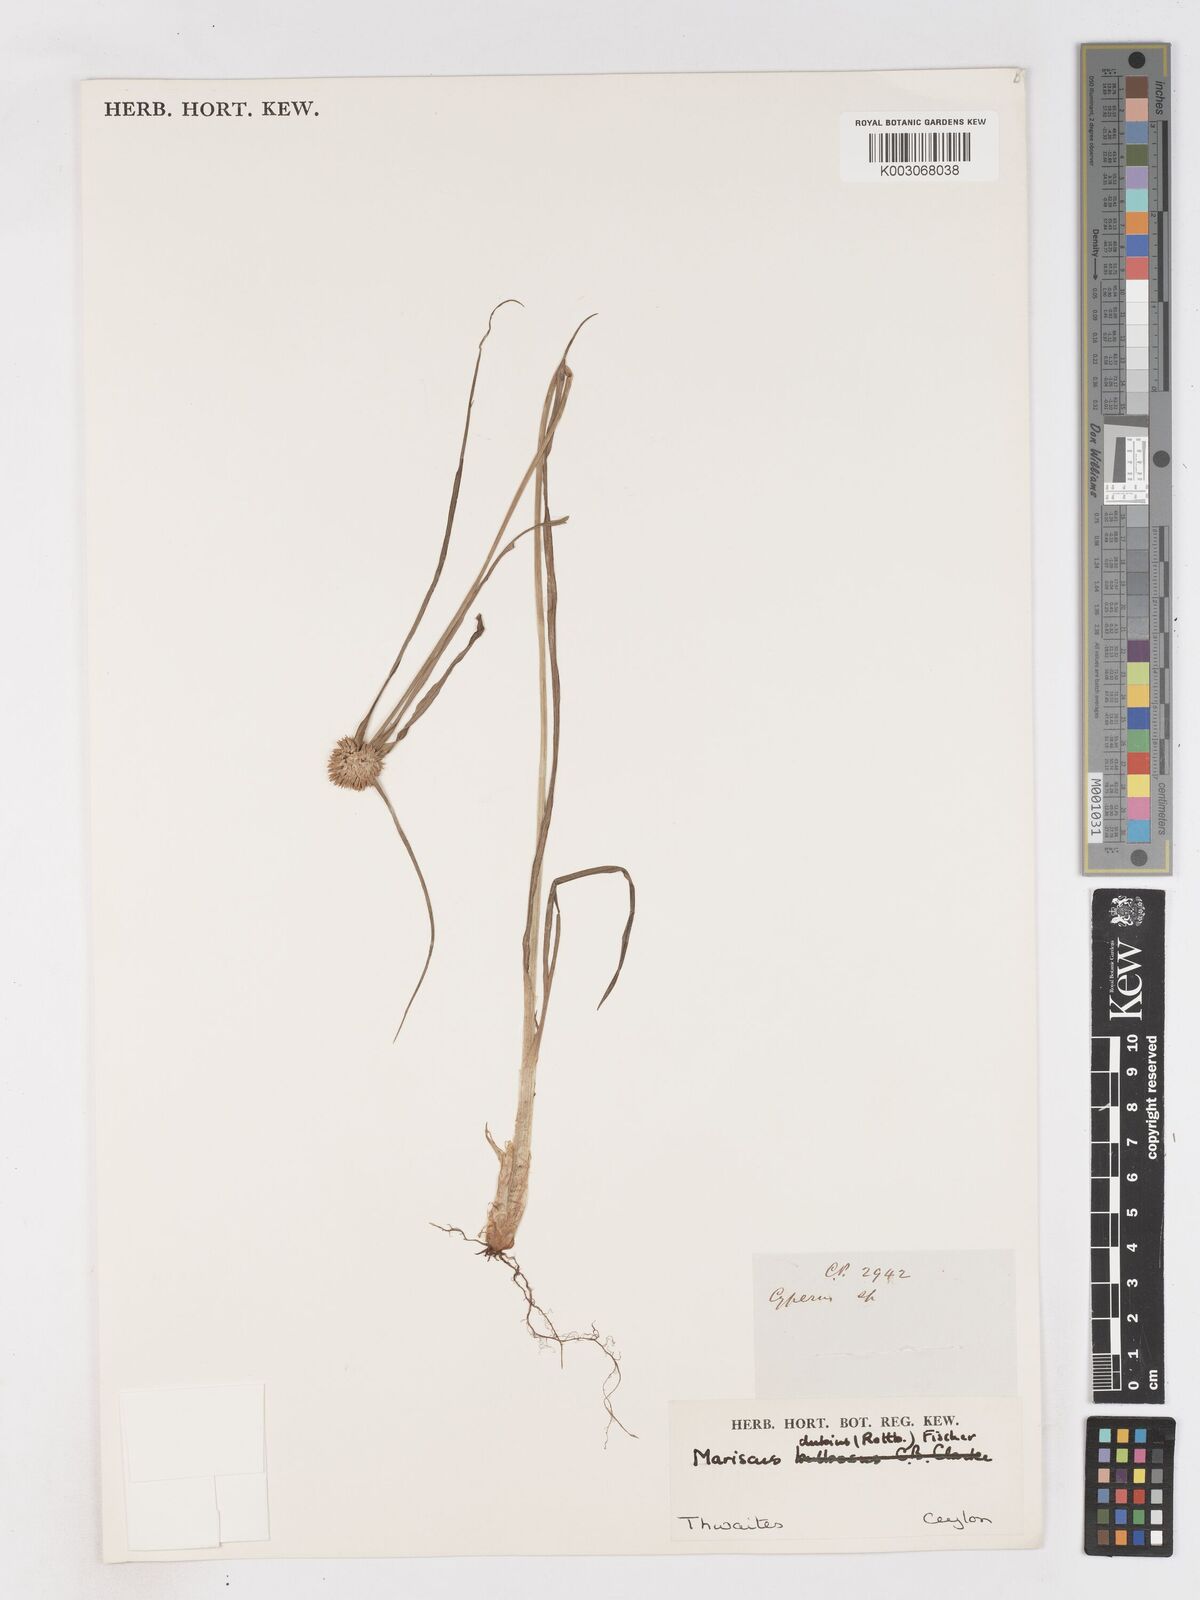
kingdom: Plantae
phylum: Tracheophyta
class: Liliopsida
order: Poales
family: Cyperaceae
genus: Cyperus
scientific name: Cyperus dubius
